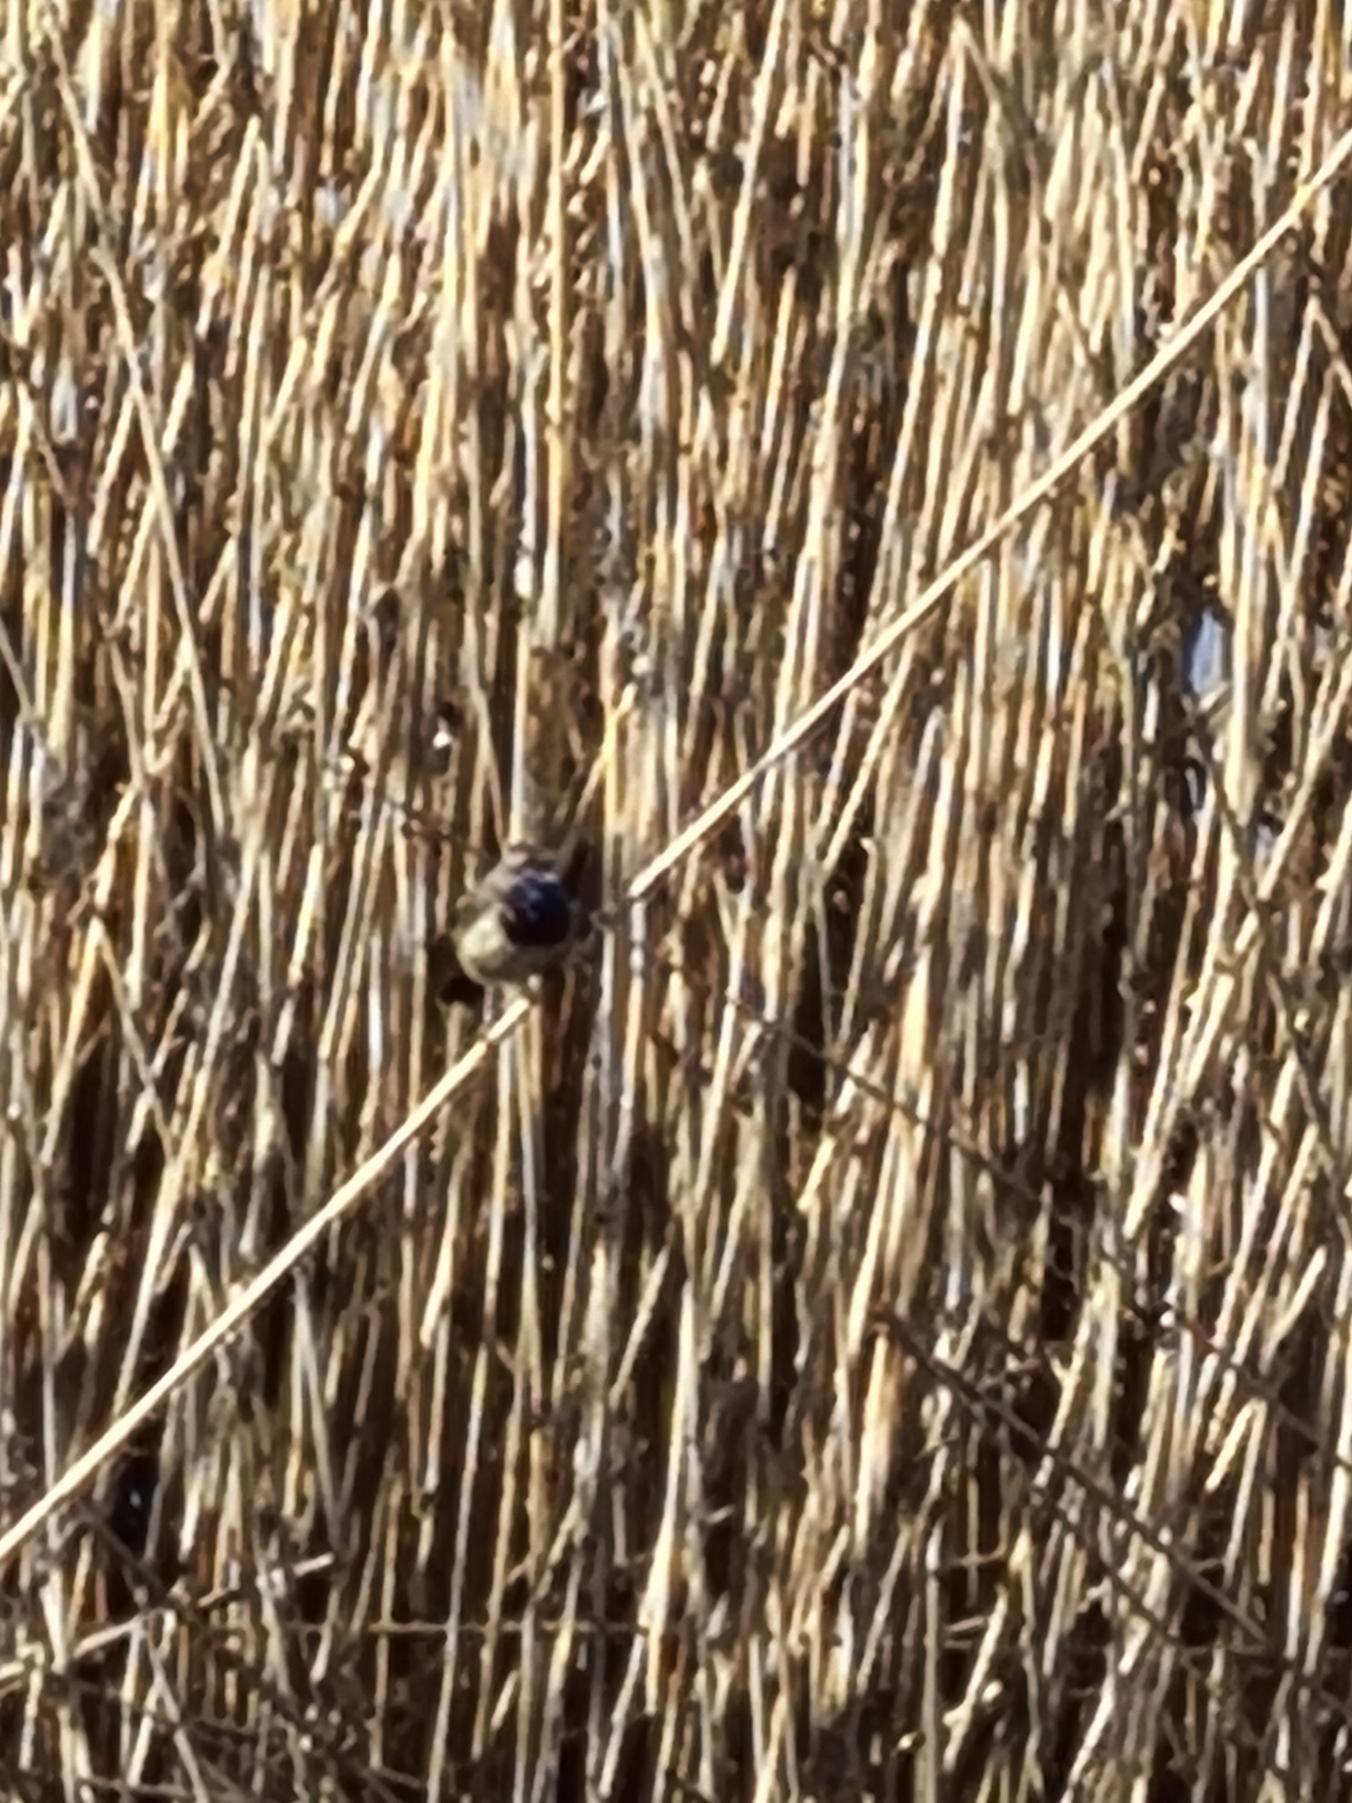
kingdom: Animalia
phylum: Chordata
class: Aves
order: Passeriformes
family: Muscicapidae
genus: Luscinia
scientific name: Luscinia svecica
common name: Blåhals
